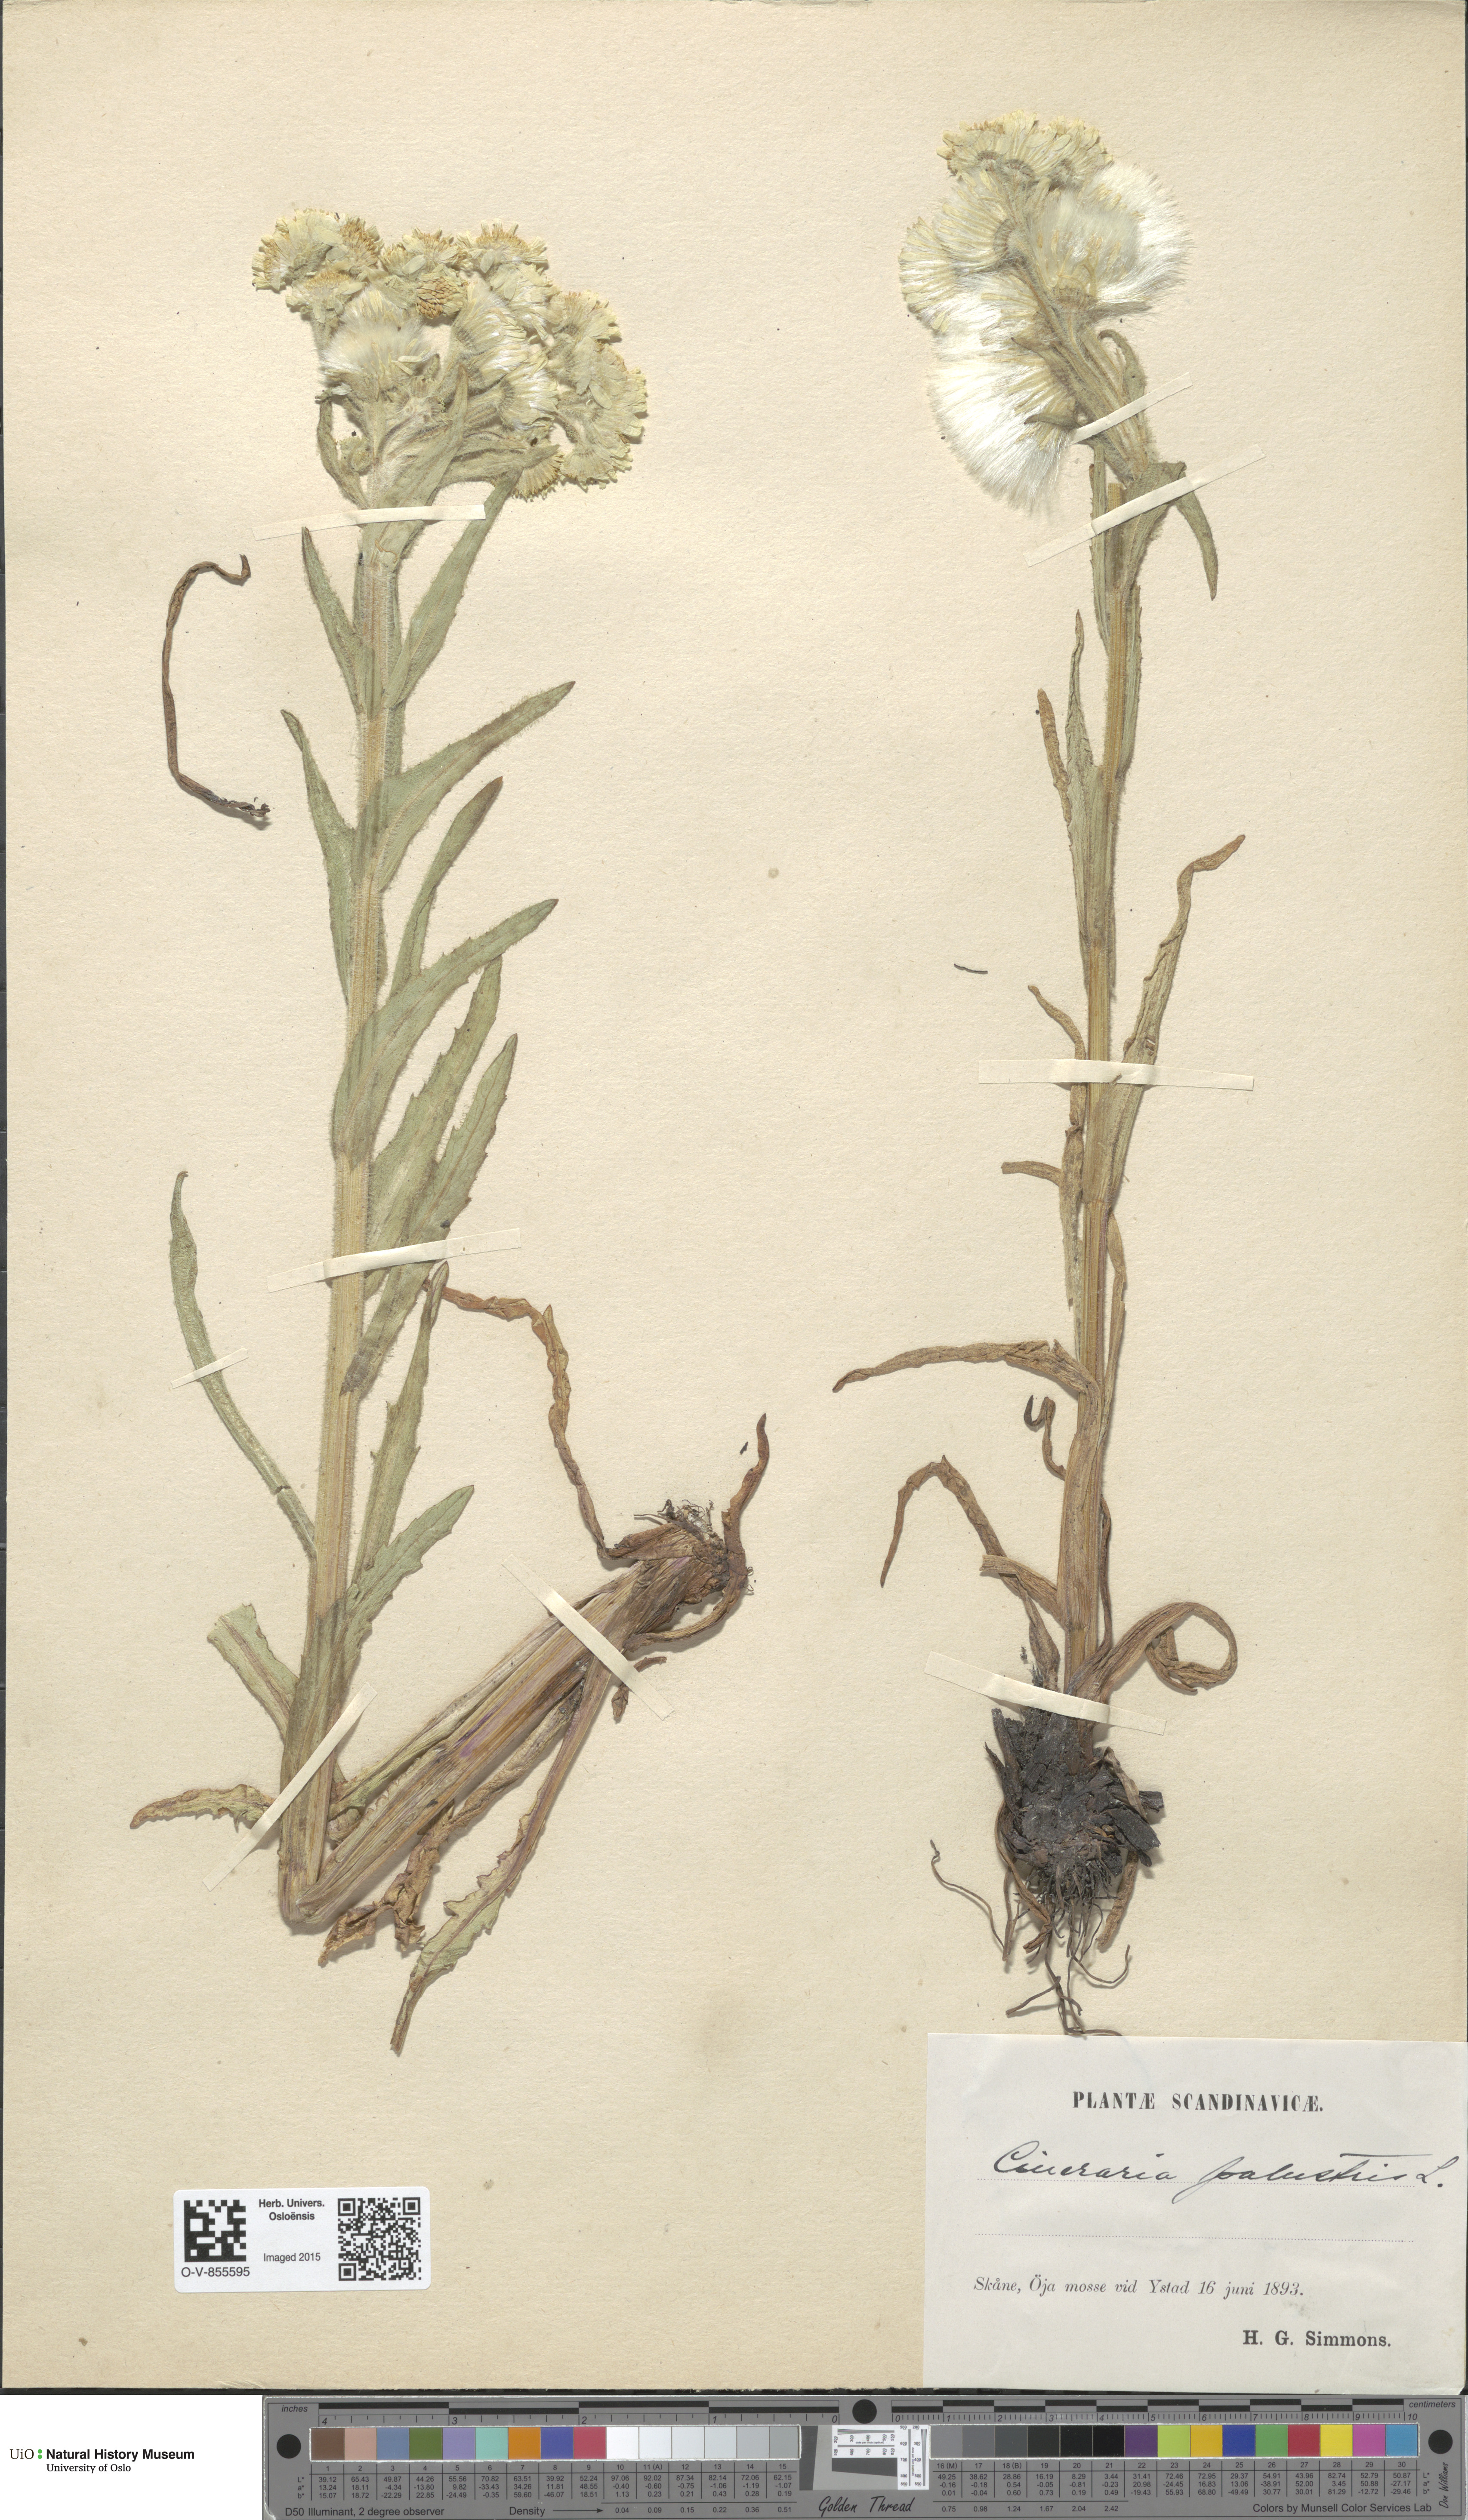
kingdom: Plantae
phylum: Tracheophyta
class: Magnoliopsida
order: Asterales
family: Asteraceae
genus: Tephroseris
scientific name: Tephroseris palustris
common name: Marsh fleawort
